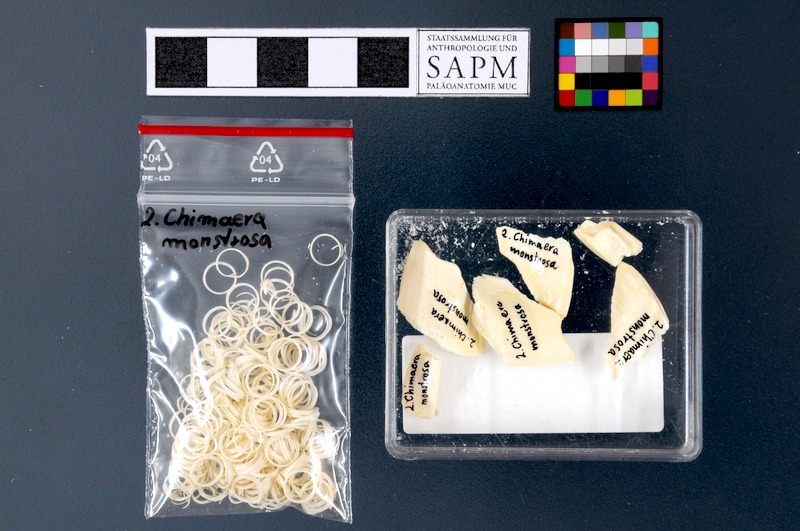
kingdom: Animalia
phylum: Chordata
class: Holocephali
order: Chimaeriformes
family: Chimaeridae
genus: Chimaera
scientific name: Chimaera monstrosa
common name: Rabbitfish
